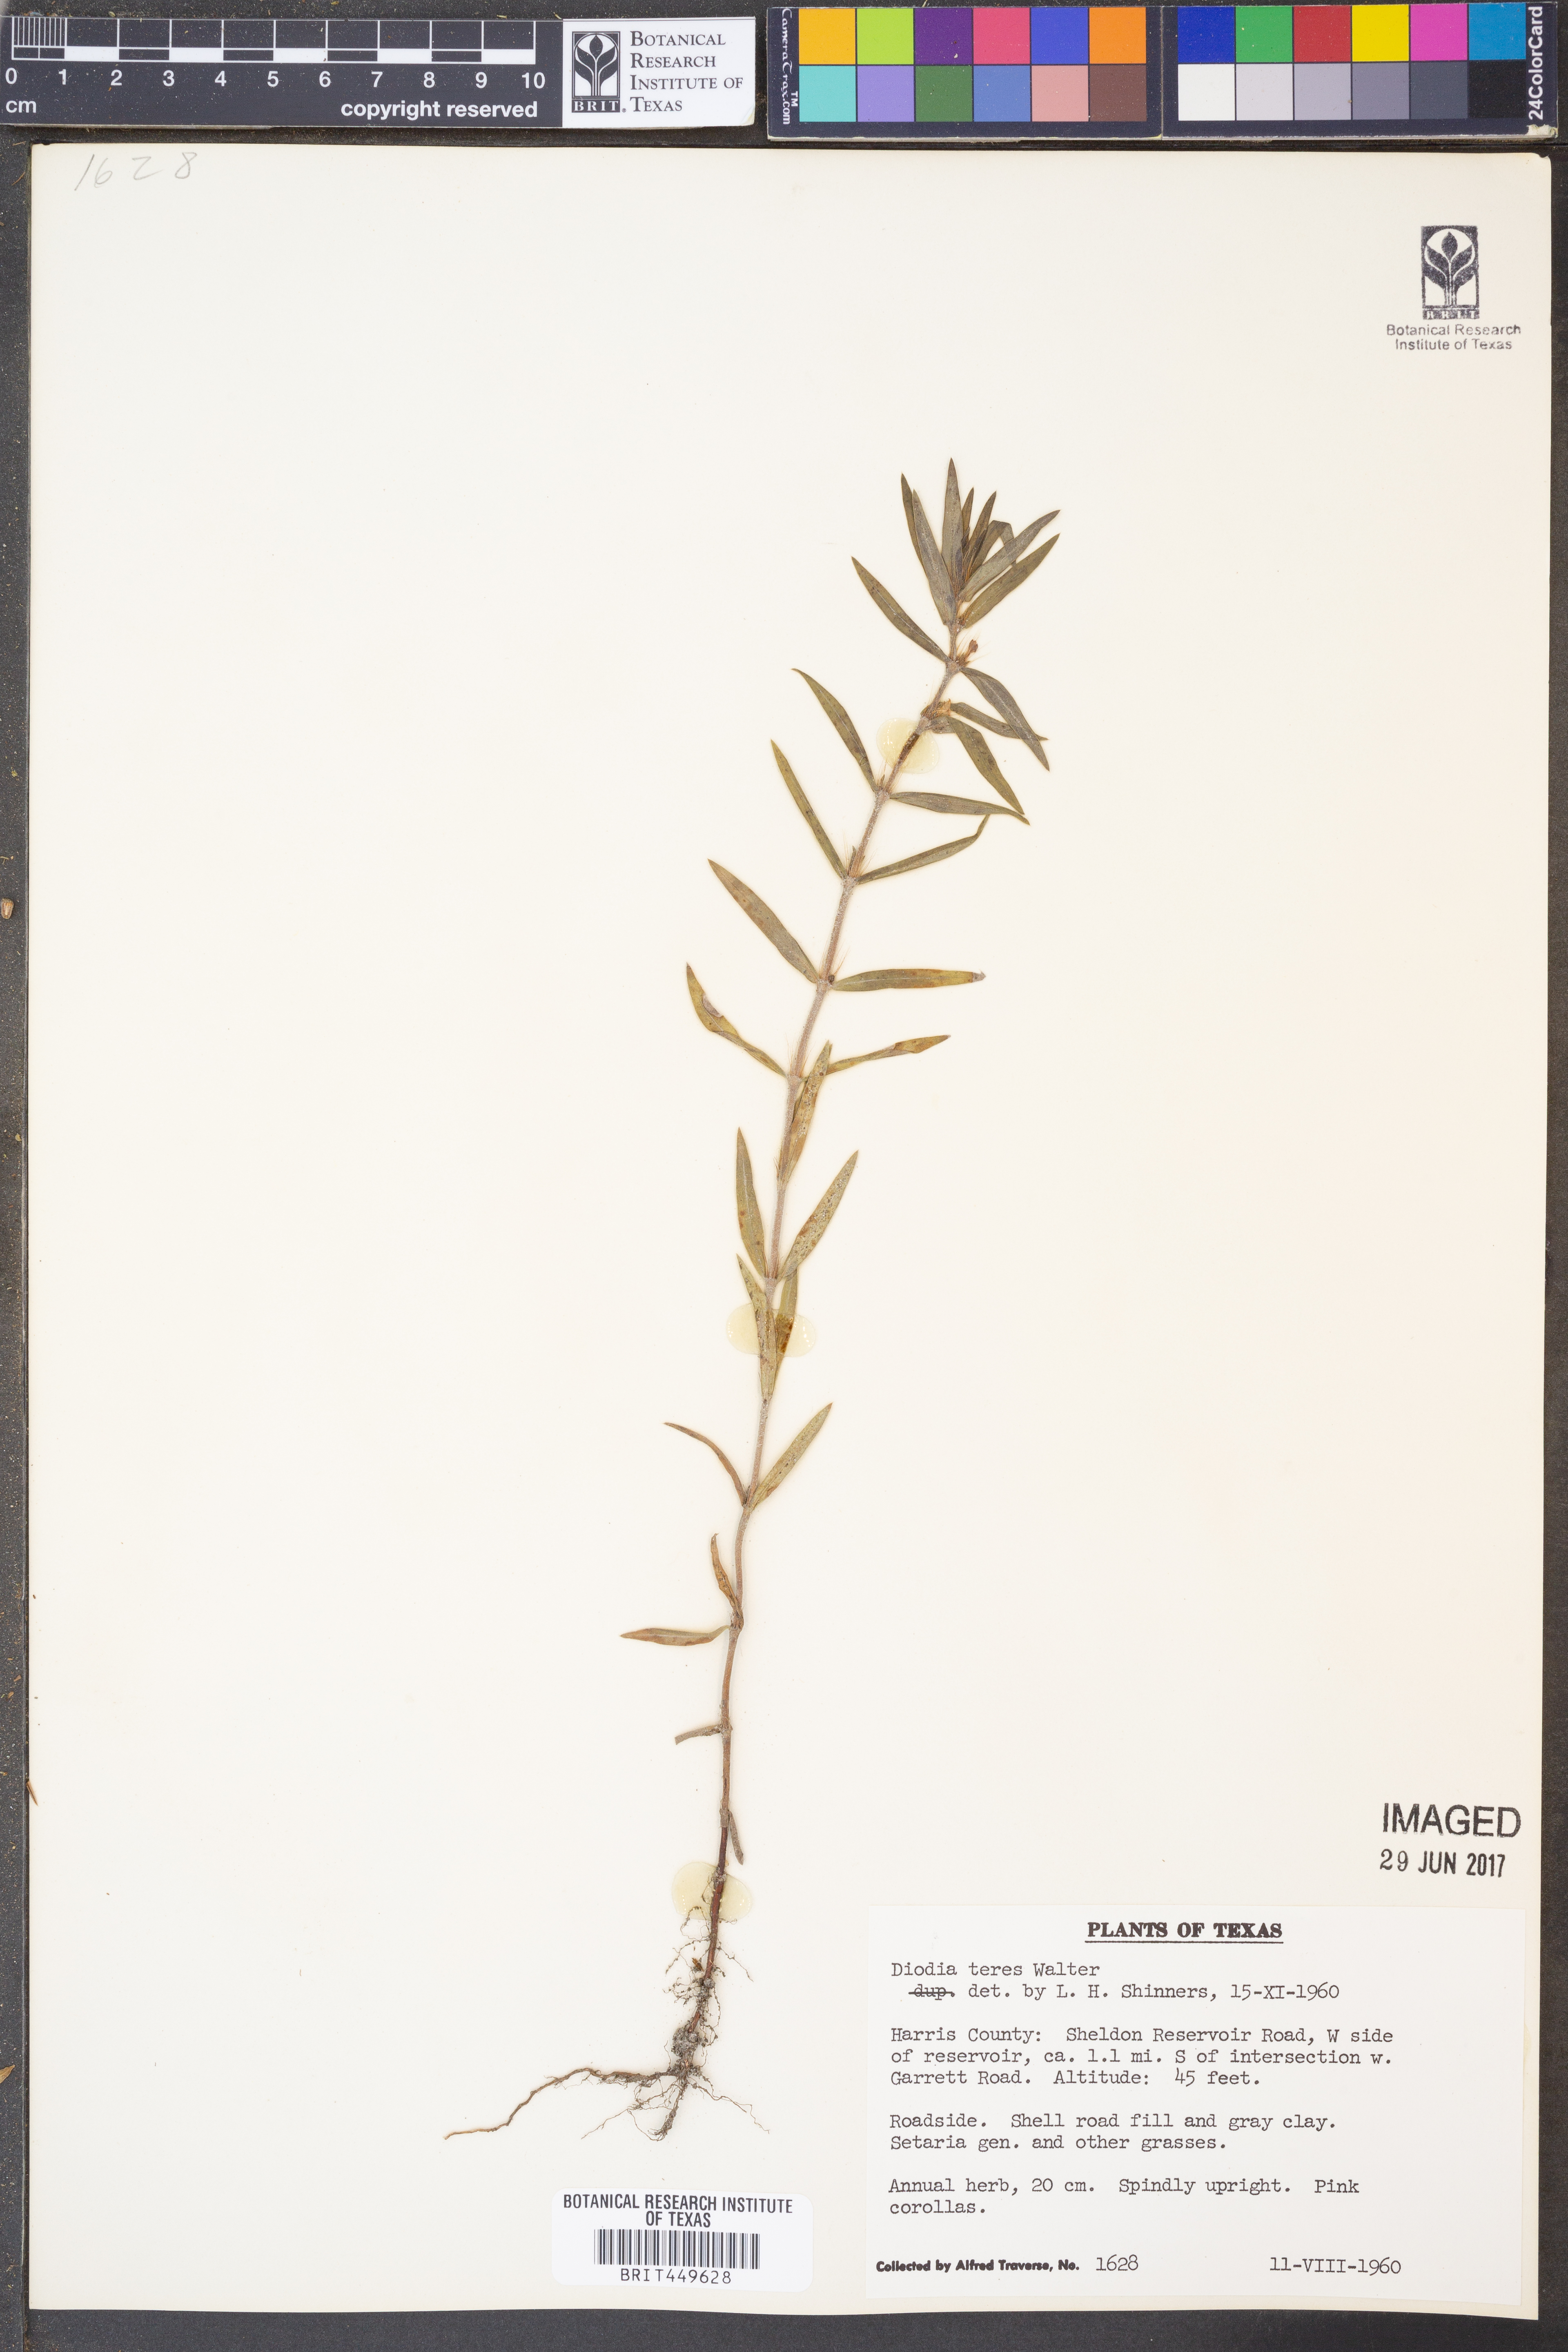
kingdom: Plantae
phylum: Tracheophyta
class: Magnoliopsida
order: Gentianales
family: Rubiaceae
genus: Hexasepalum
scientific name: Hexasepalum teres
